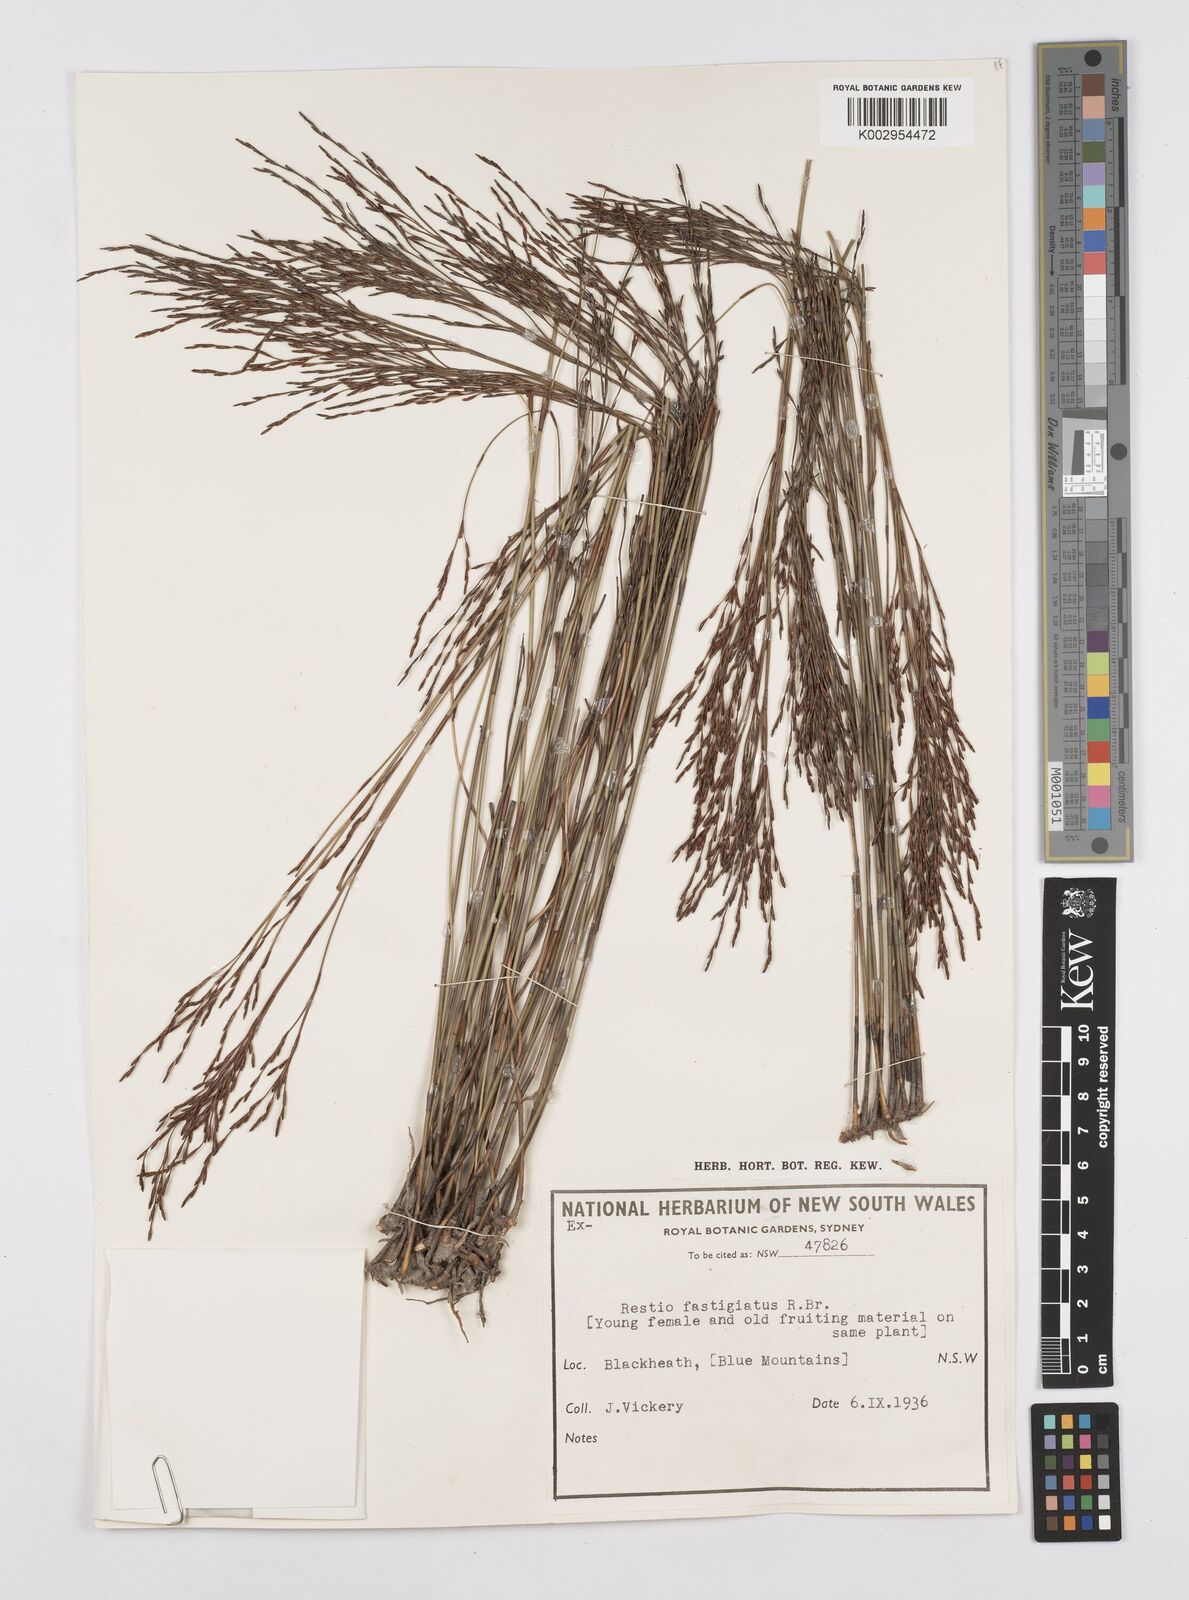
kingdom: Plantae
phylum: Tracheophyta
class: Liliopsida
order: Poales
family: Restionaceae
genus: Chordifex
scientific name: Chordifex fastigiatus
